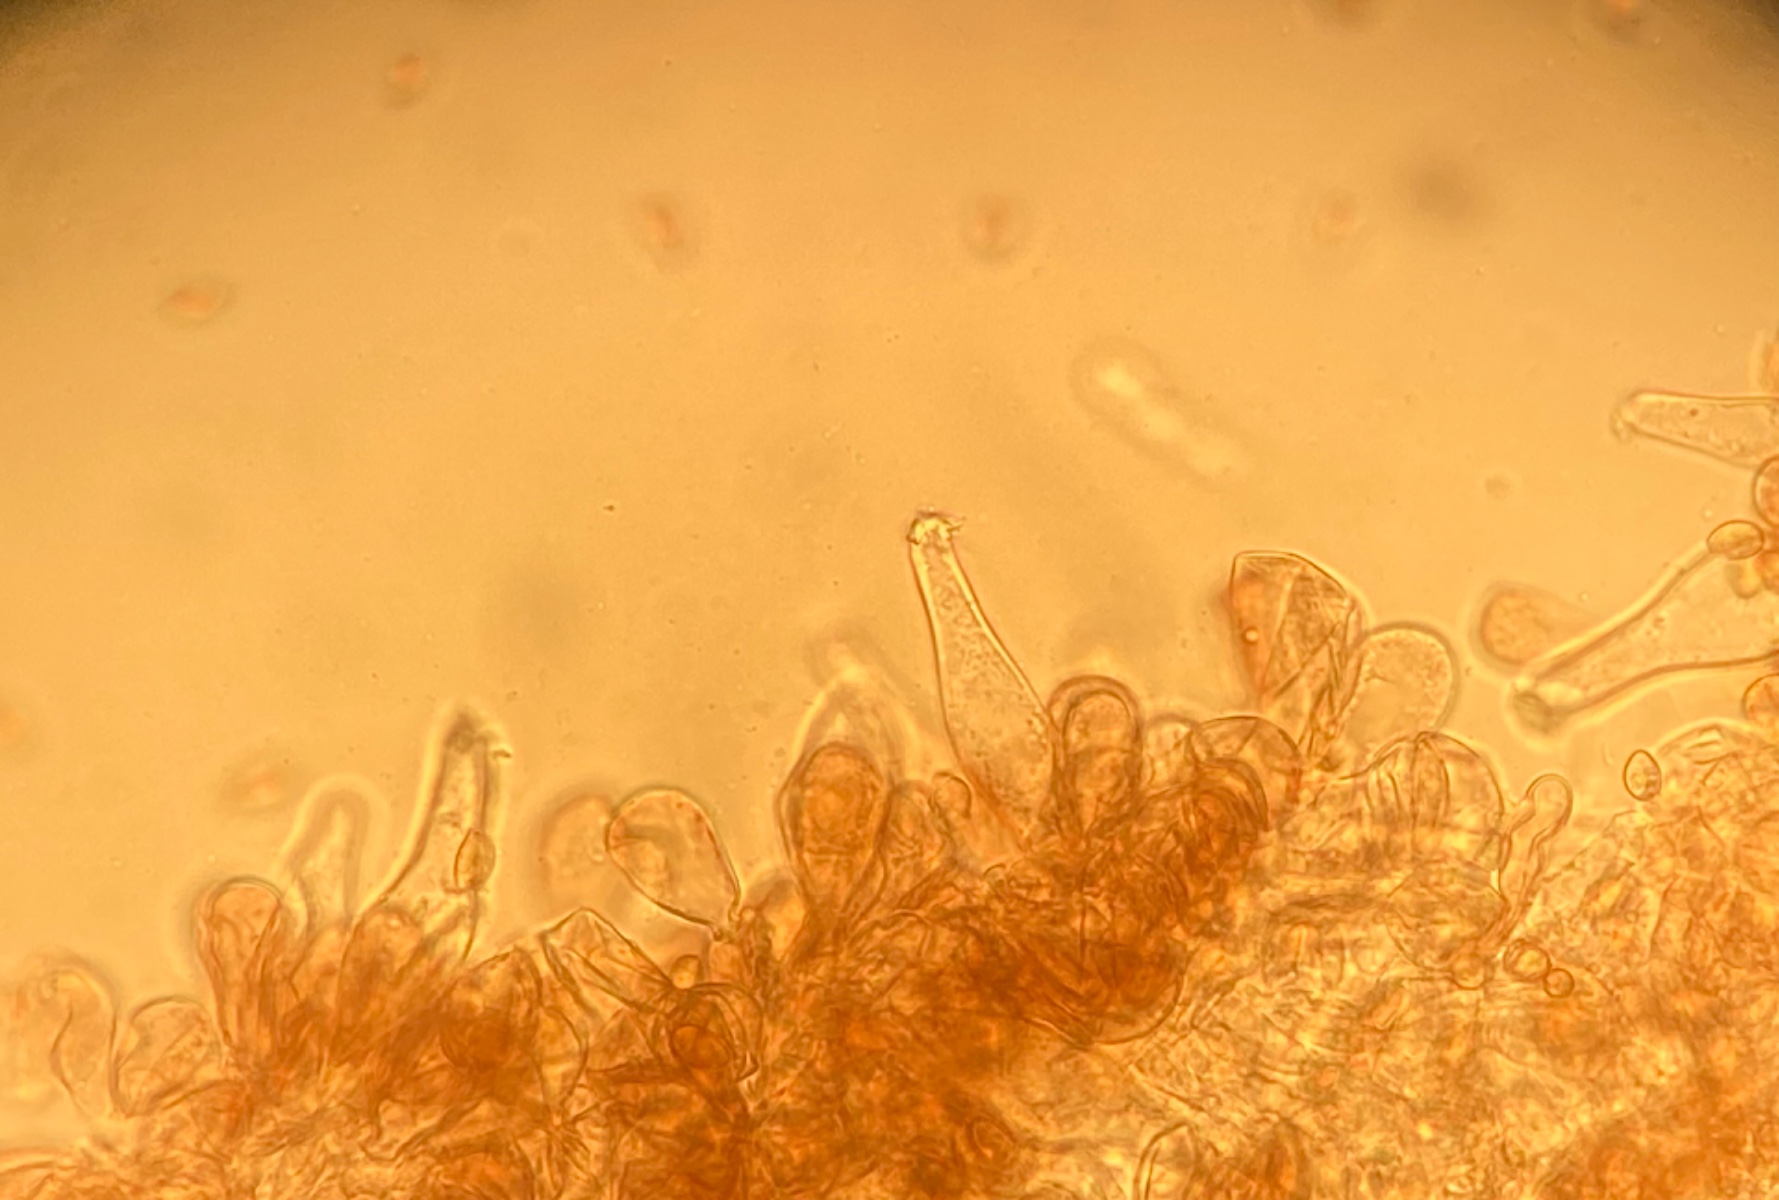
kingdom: Fungi
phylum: Basidiomycota
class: Agaricomycetes
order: Agaricales
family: Inocybaceae
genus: Inocybe
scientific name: Inocybe cincinnata
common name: lillabladet trævlhat
